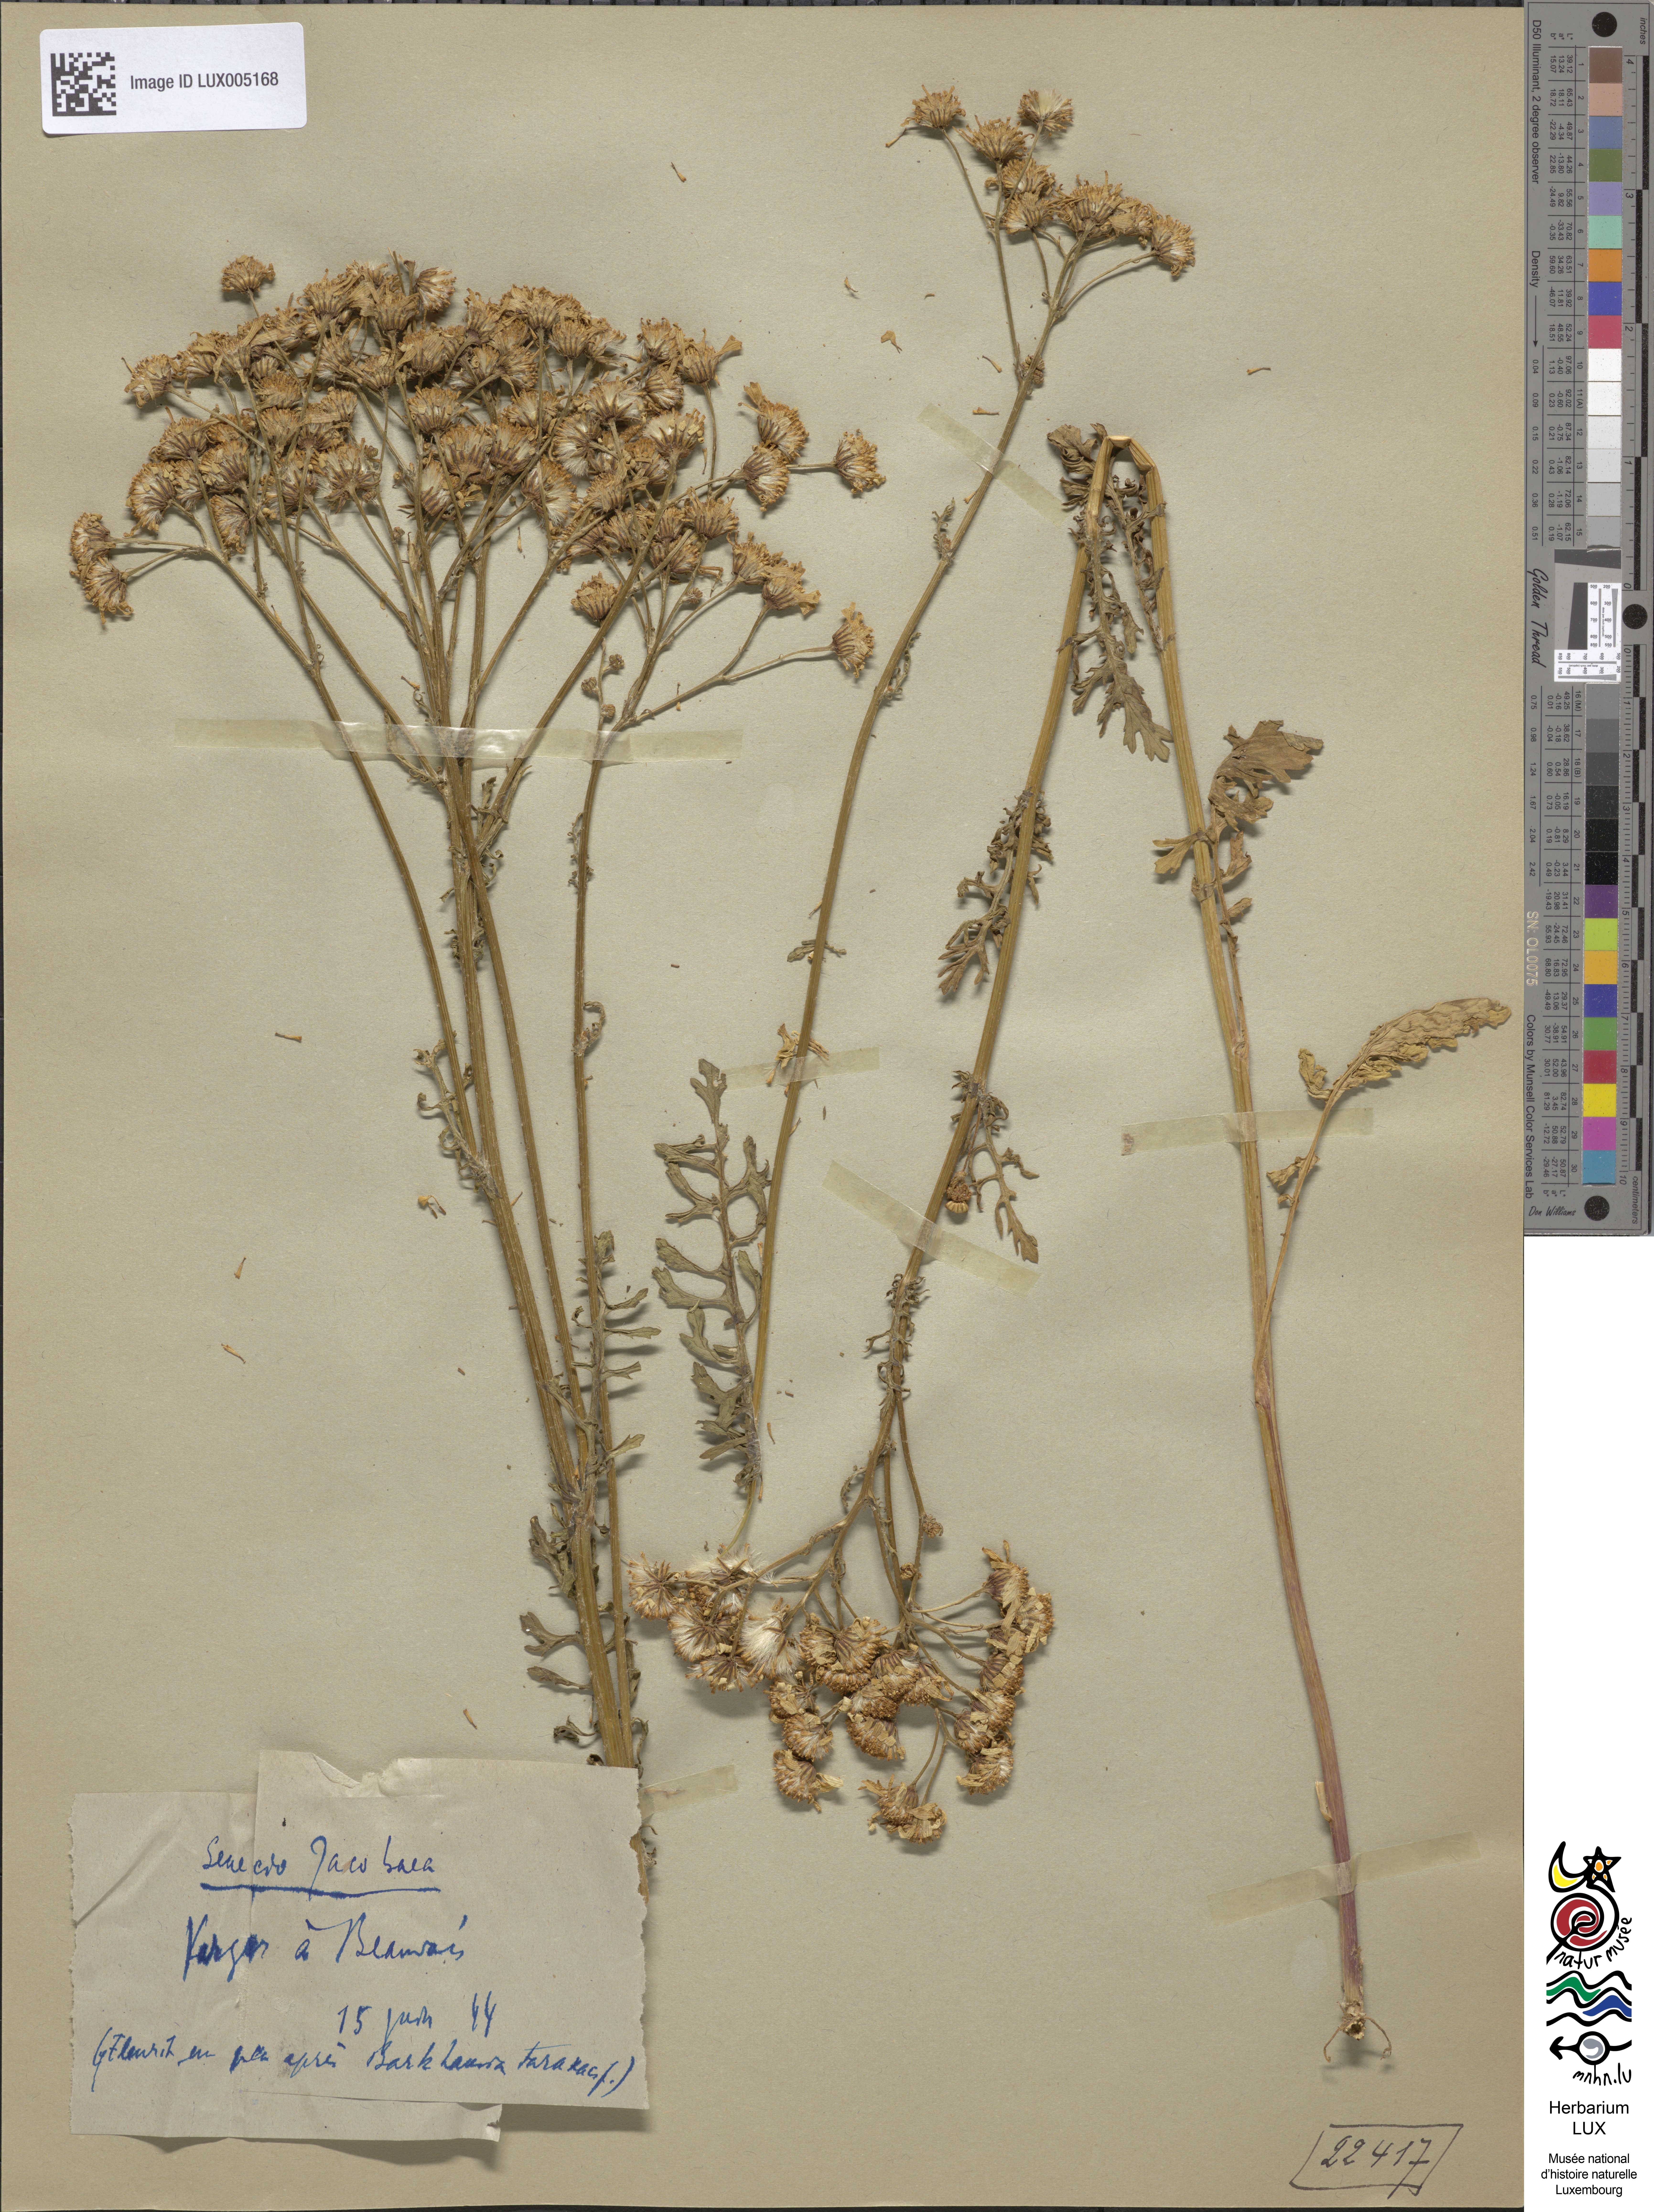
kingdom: Plantae
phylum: Tracheophyta
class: Magnoliopsida
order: Asterales
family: Asteraceae
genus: Jacobaea
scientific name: Jacobaea vulgaris
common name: Stinking willie
